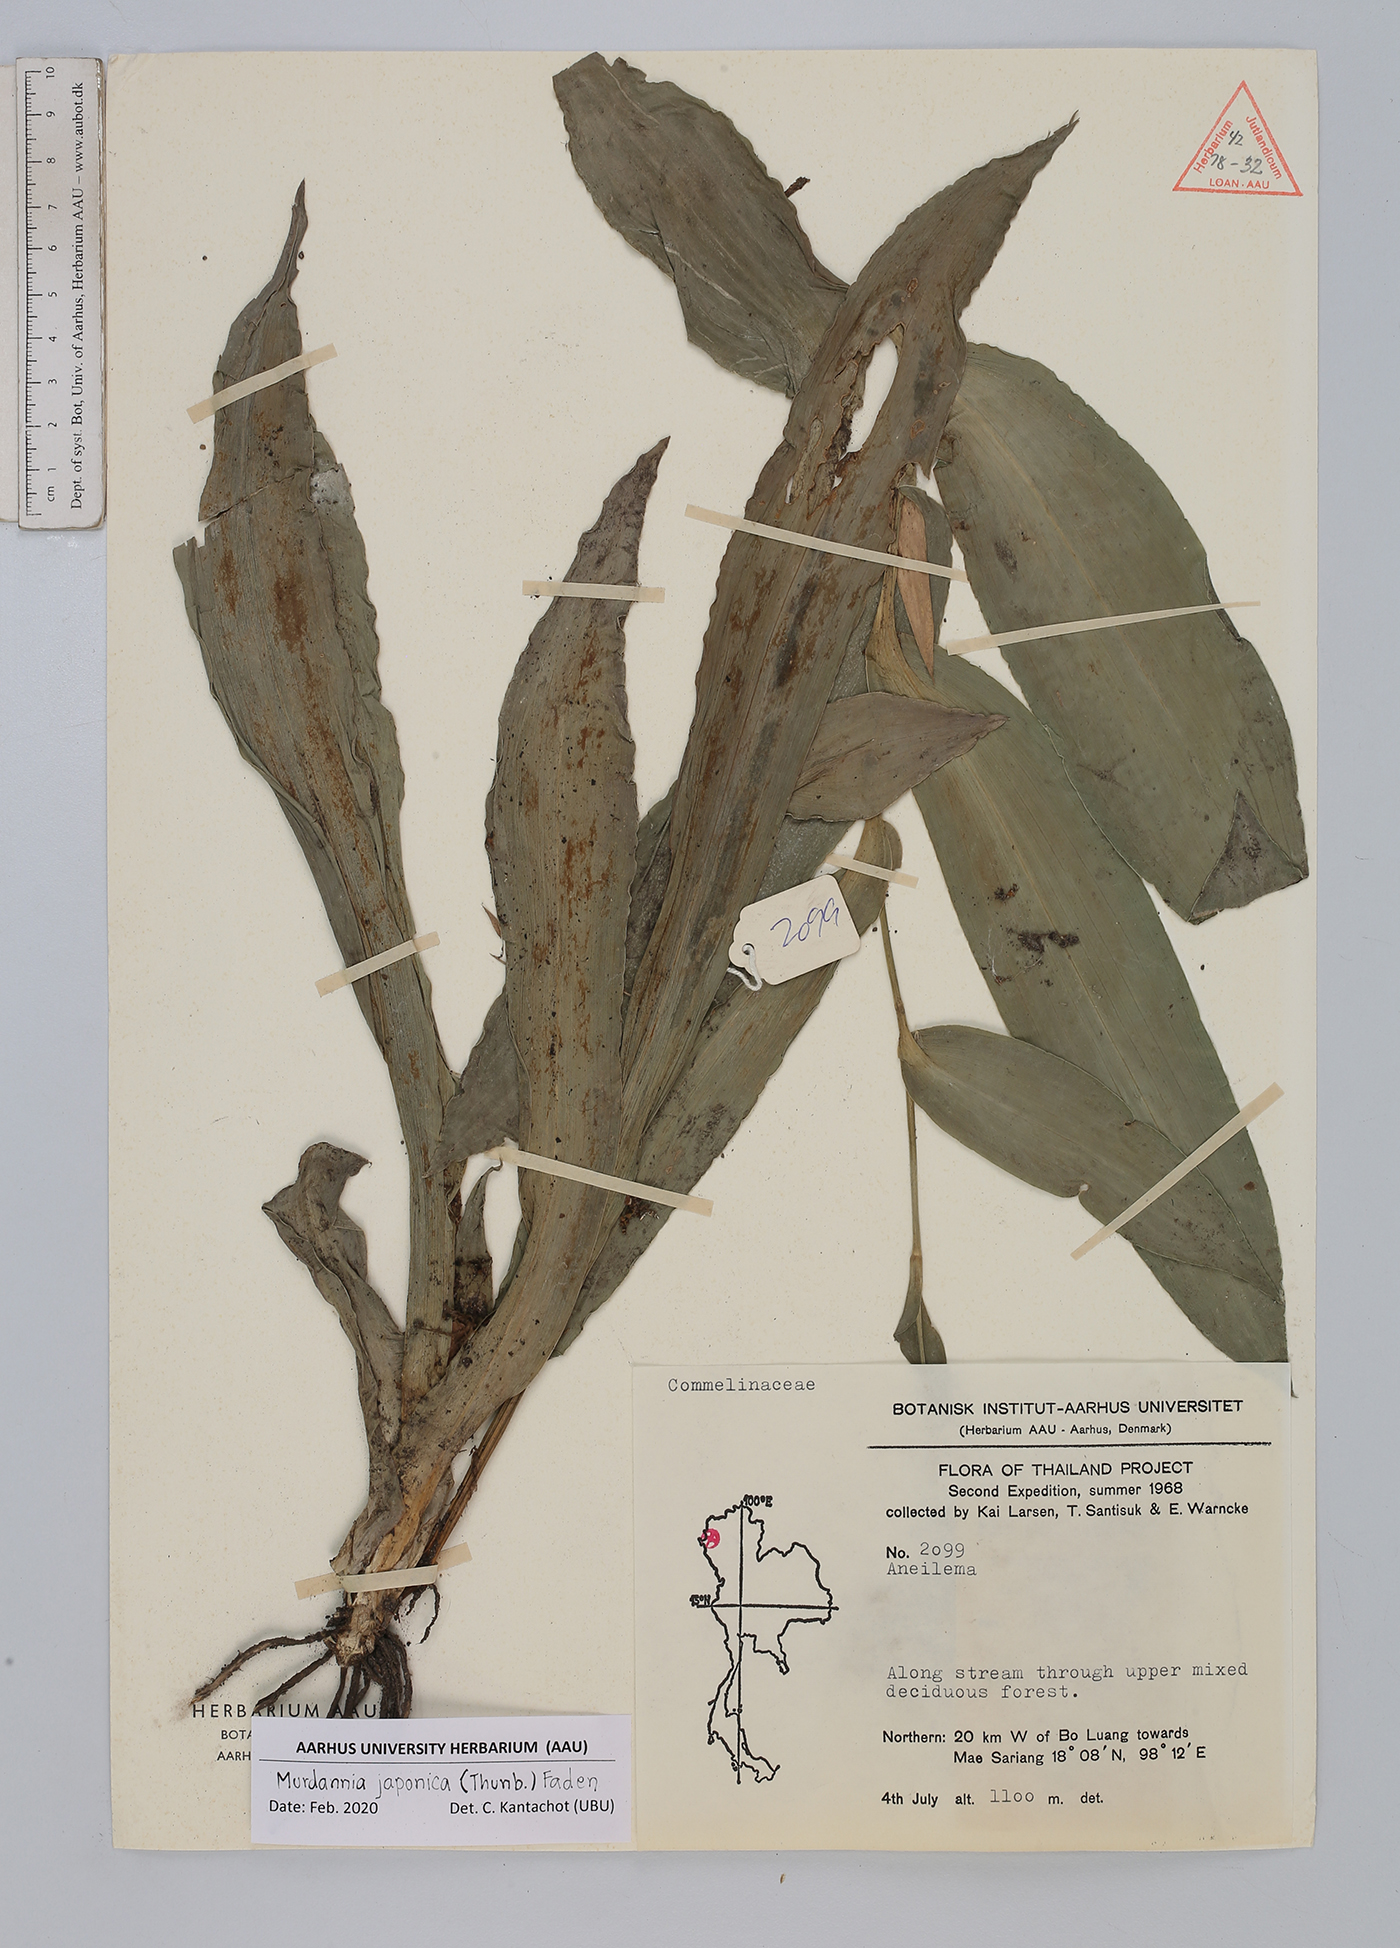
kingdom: Plantae
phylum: Tracheophyta
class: Liliopsida
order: Commelinales
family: Commelinaceae
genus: Murdannia
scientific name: Murdannia japonica
